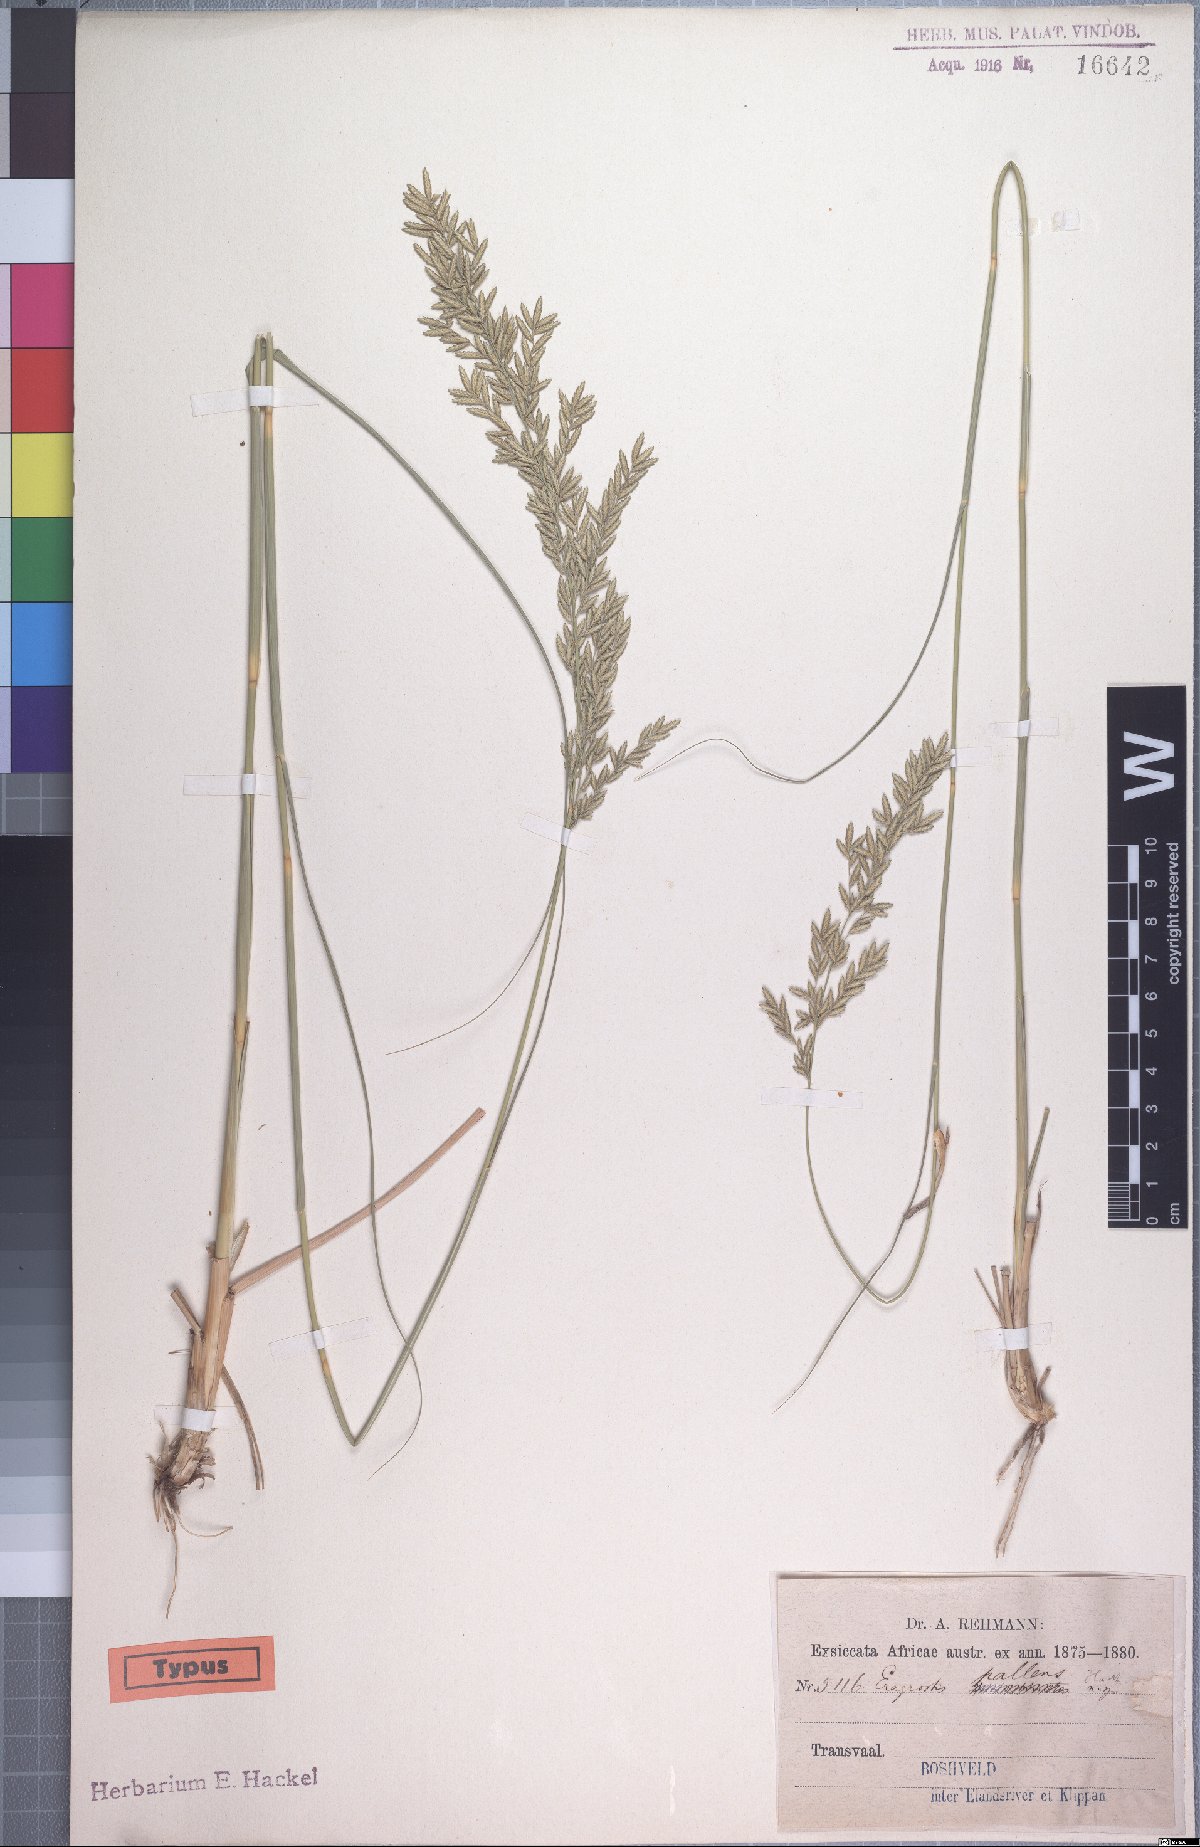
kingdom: Plantae
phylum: Tracheophyta
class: Liliopsida
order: Poales
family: Poaceae
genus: Eragrostis
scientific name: Eragrostis pallens
